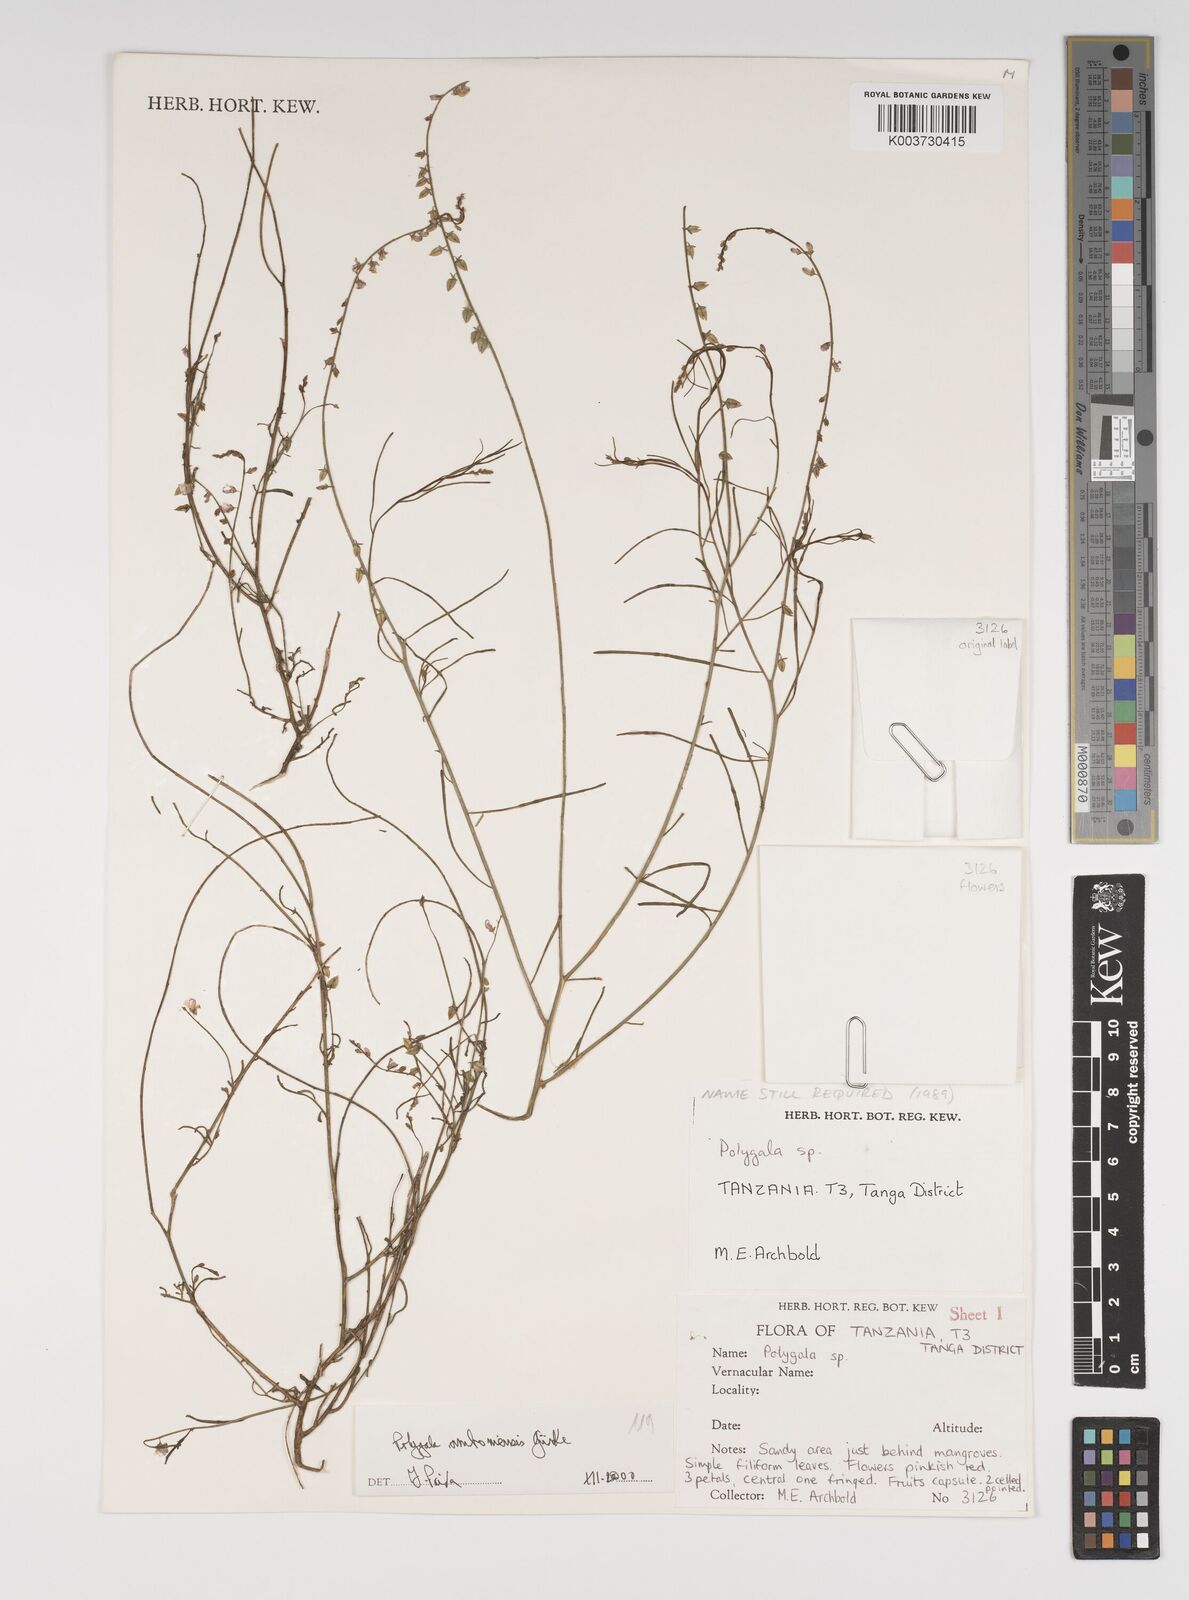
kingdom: Plantae
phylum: Tracheophyta
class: Magnoliopsida
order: Fabales
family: Polygalaceae
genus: Polygala
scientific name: Polygala amboniensis
